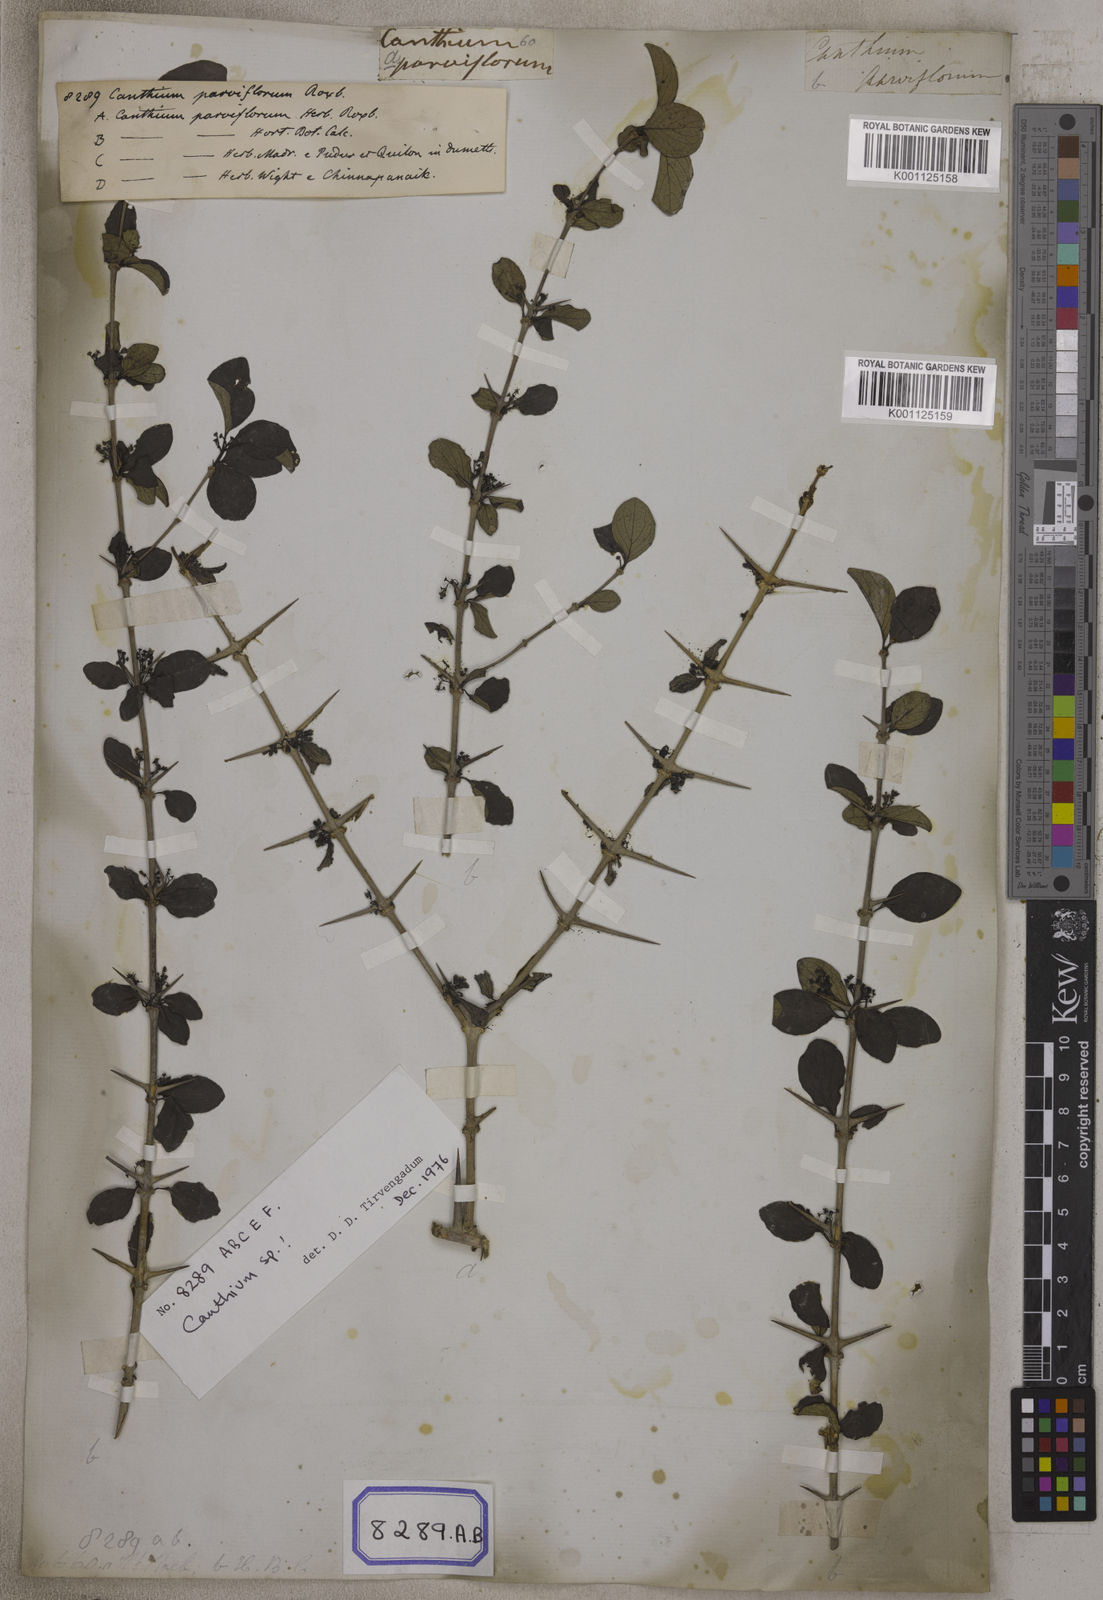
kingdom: Plantae
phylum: Tracheophyta
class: Magnoliopsida
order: Gentianales
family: Rubiaceae
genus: Canthium
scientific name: Canthium
